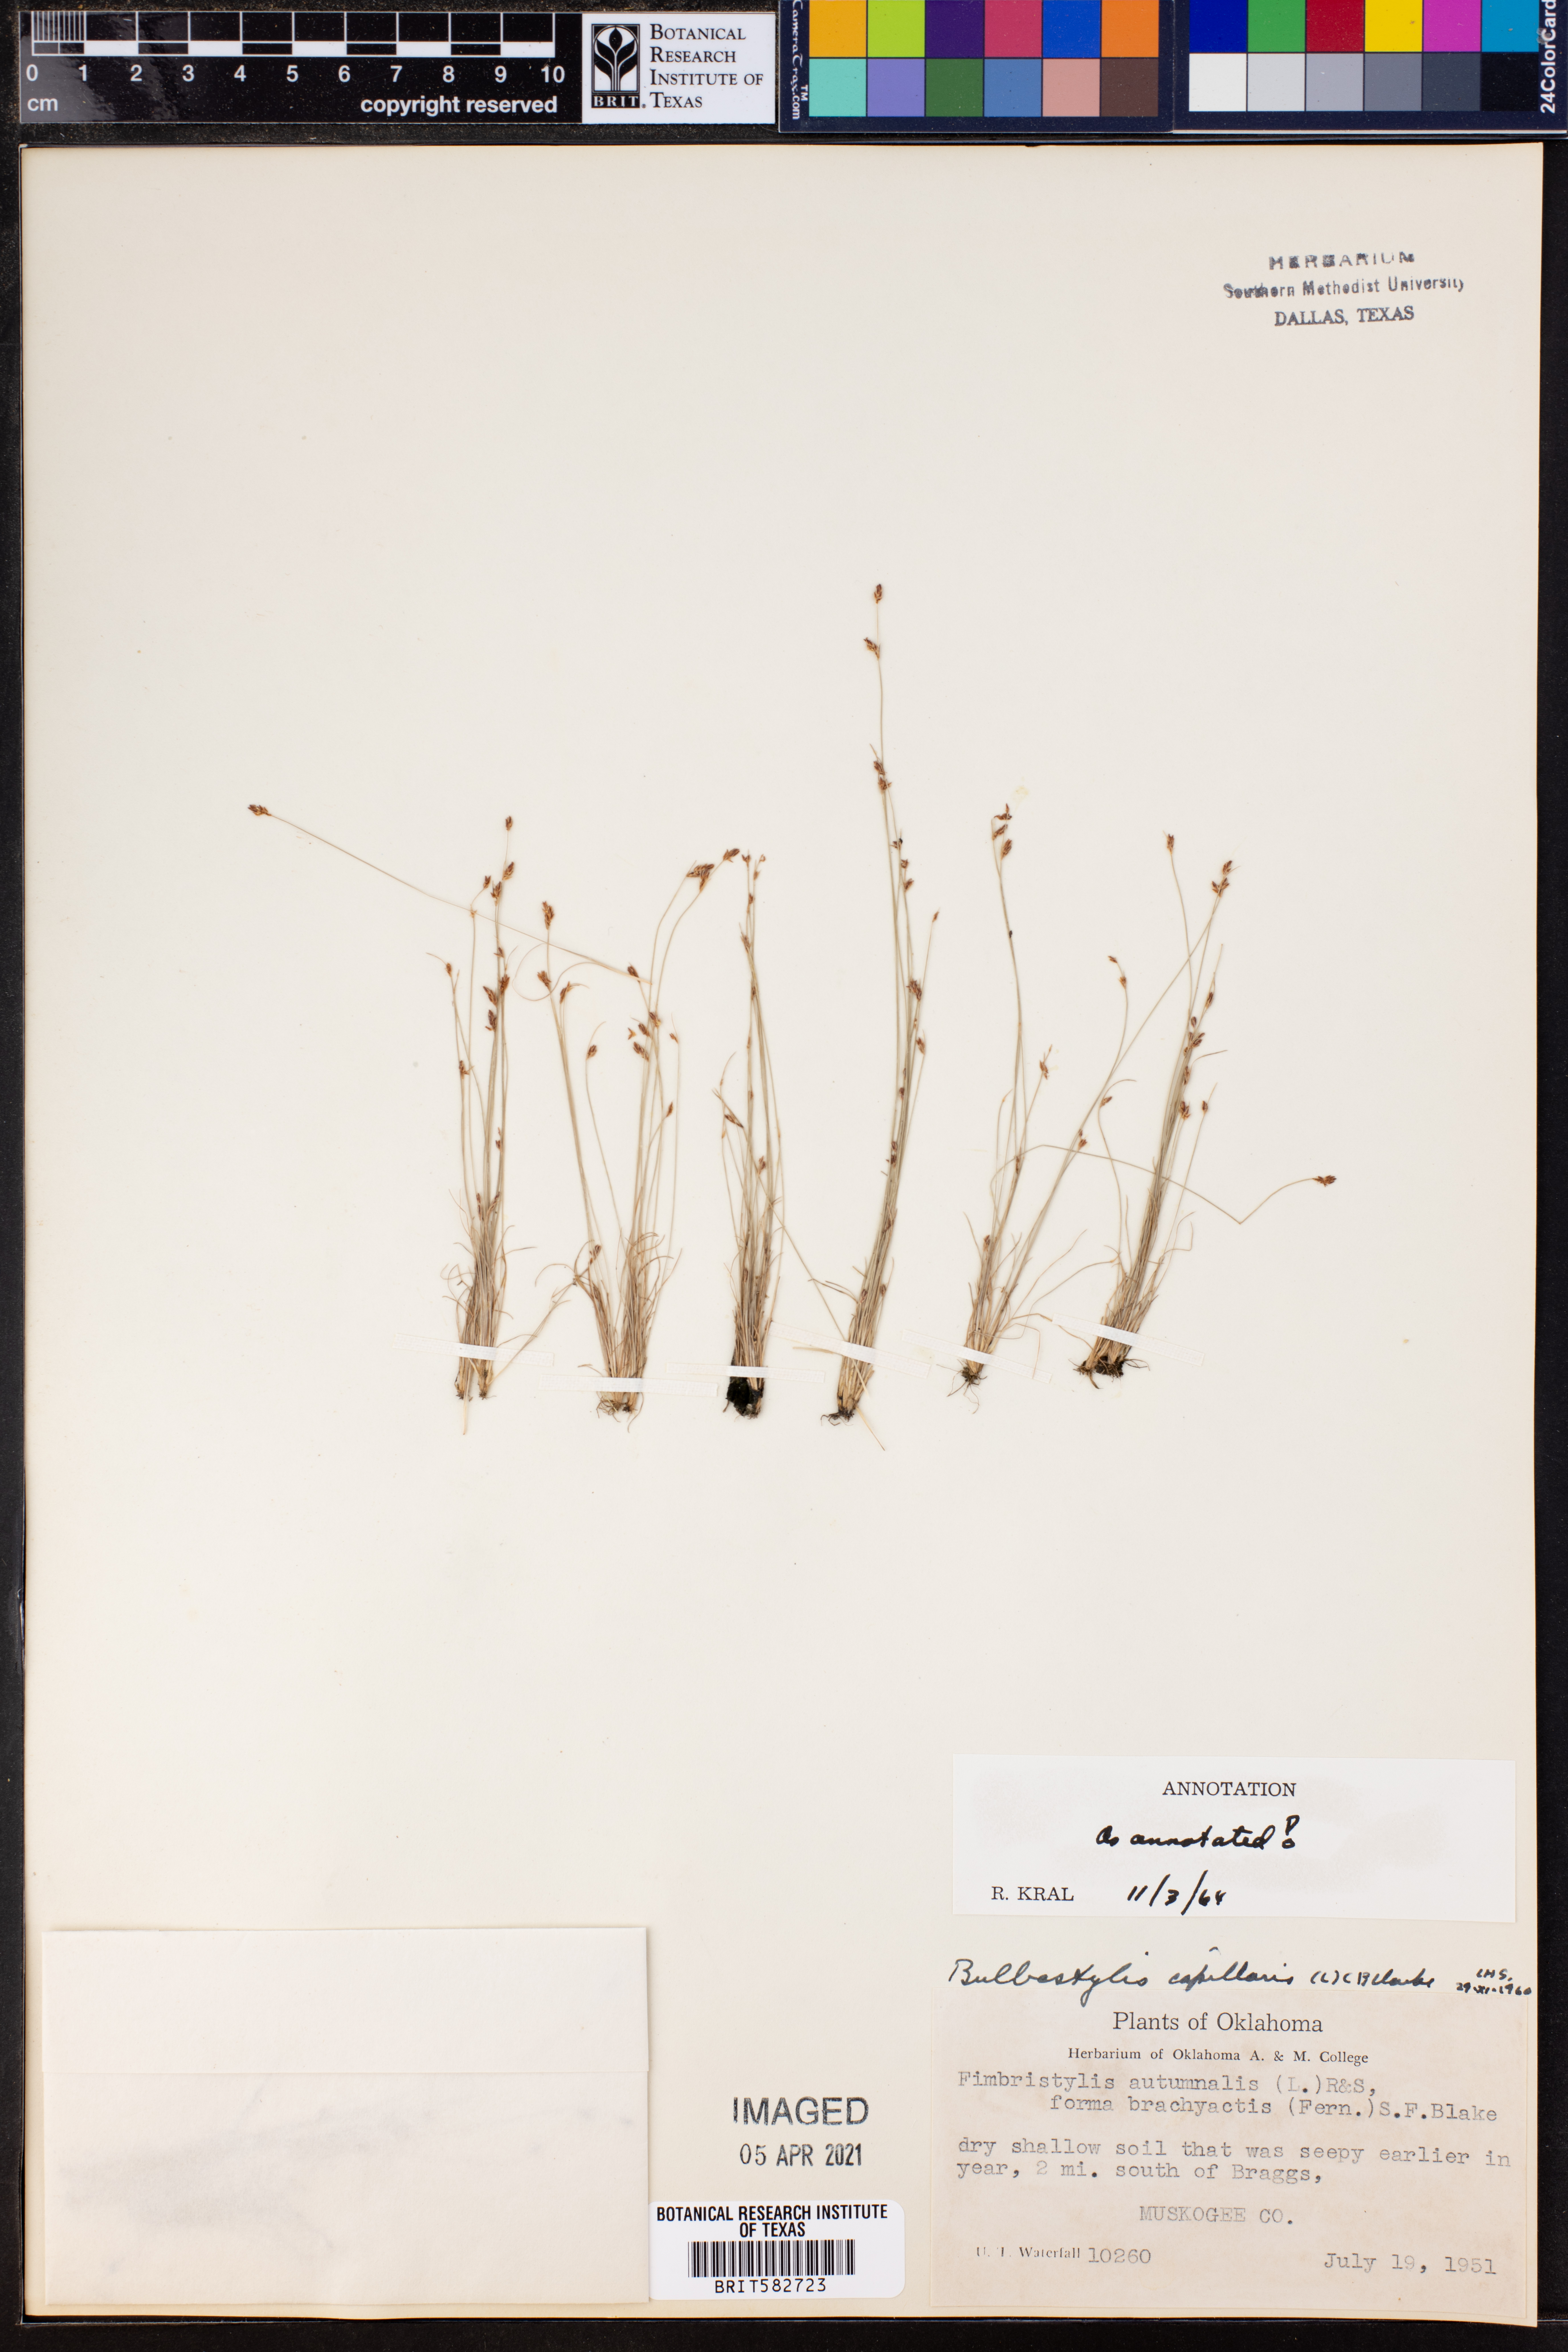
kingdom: Plantae
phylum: Tracheophyta
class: Liliopsida
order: Poales
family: Cyperaceae
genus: Bulbostylis
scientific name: Bulbostylis capillaris
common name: Densetuft hairsedge
